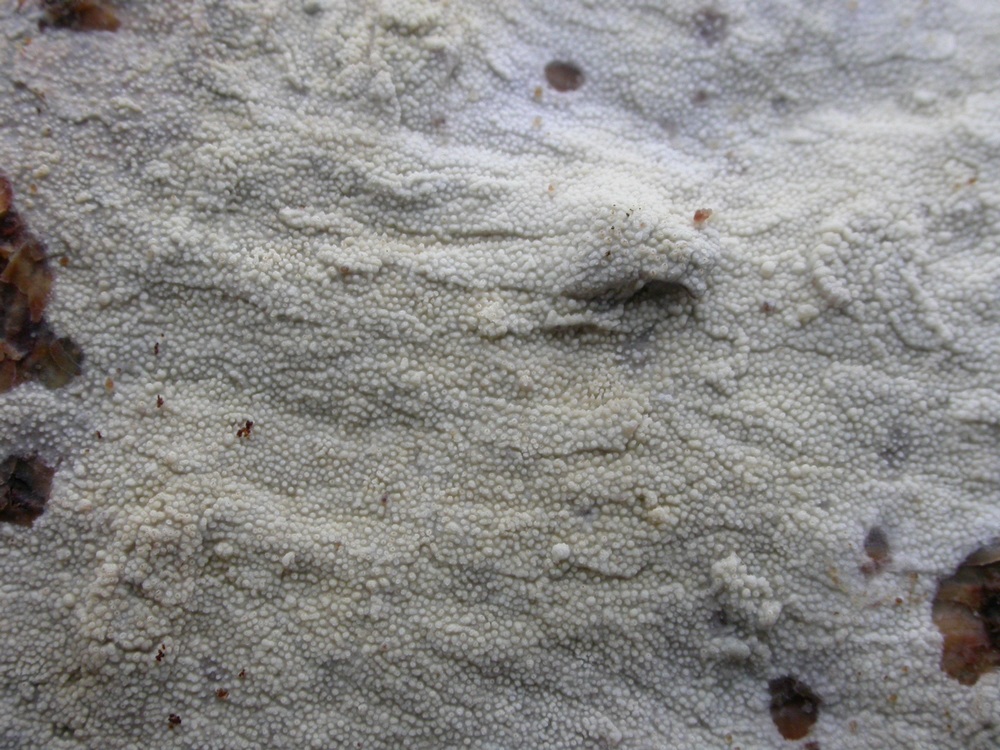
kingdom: Fungi
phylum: Basidiomycota
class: Agaricomycetes
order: Hymenochaetales
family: Rickenellaceae
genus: Resinicium
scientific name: Resinicium bicolor
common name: almindelig vokstand
